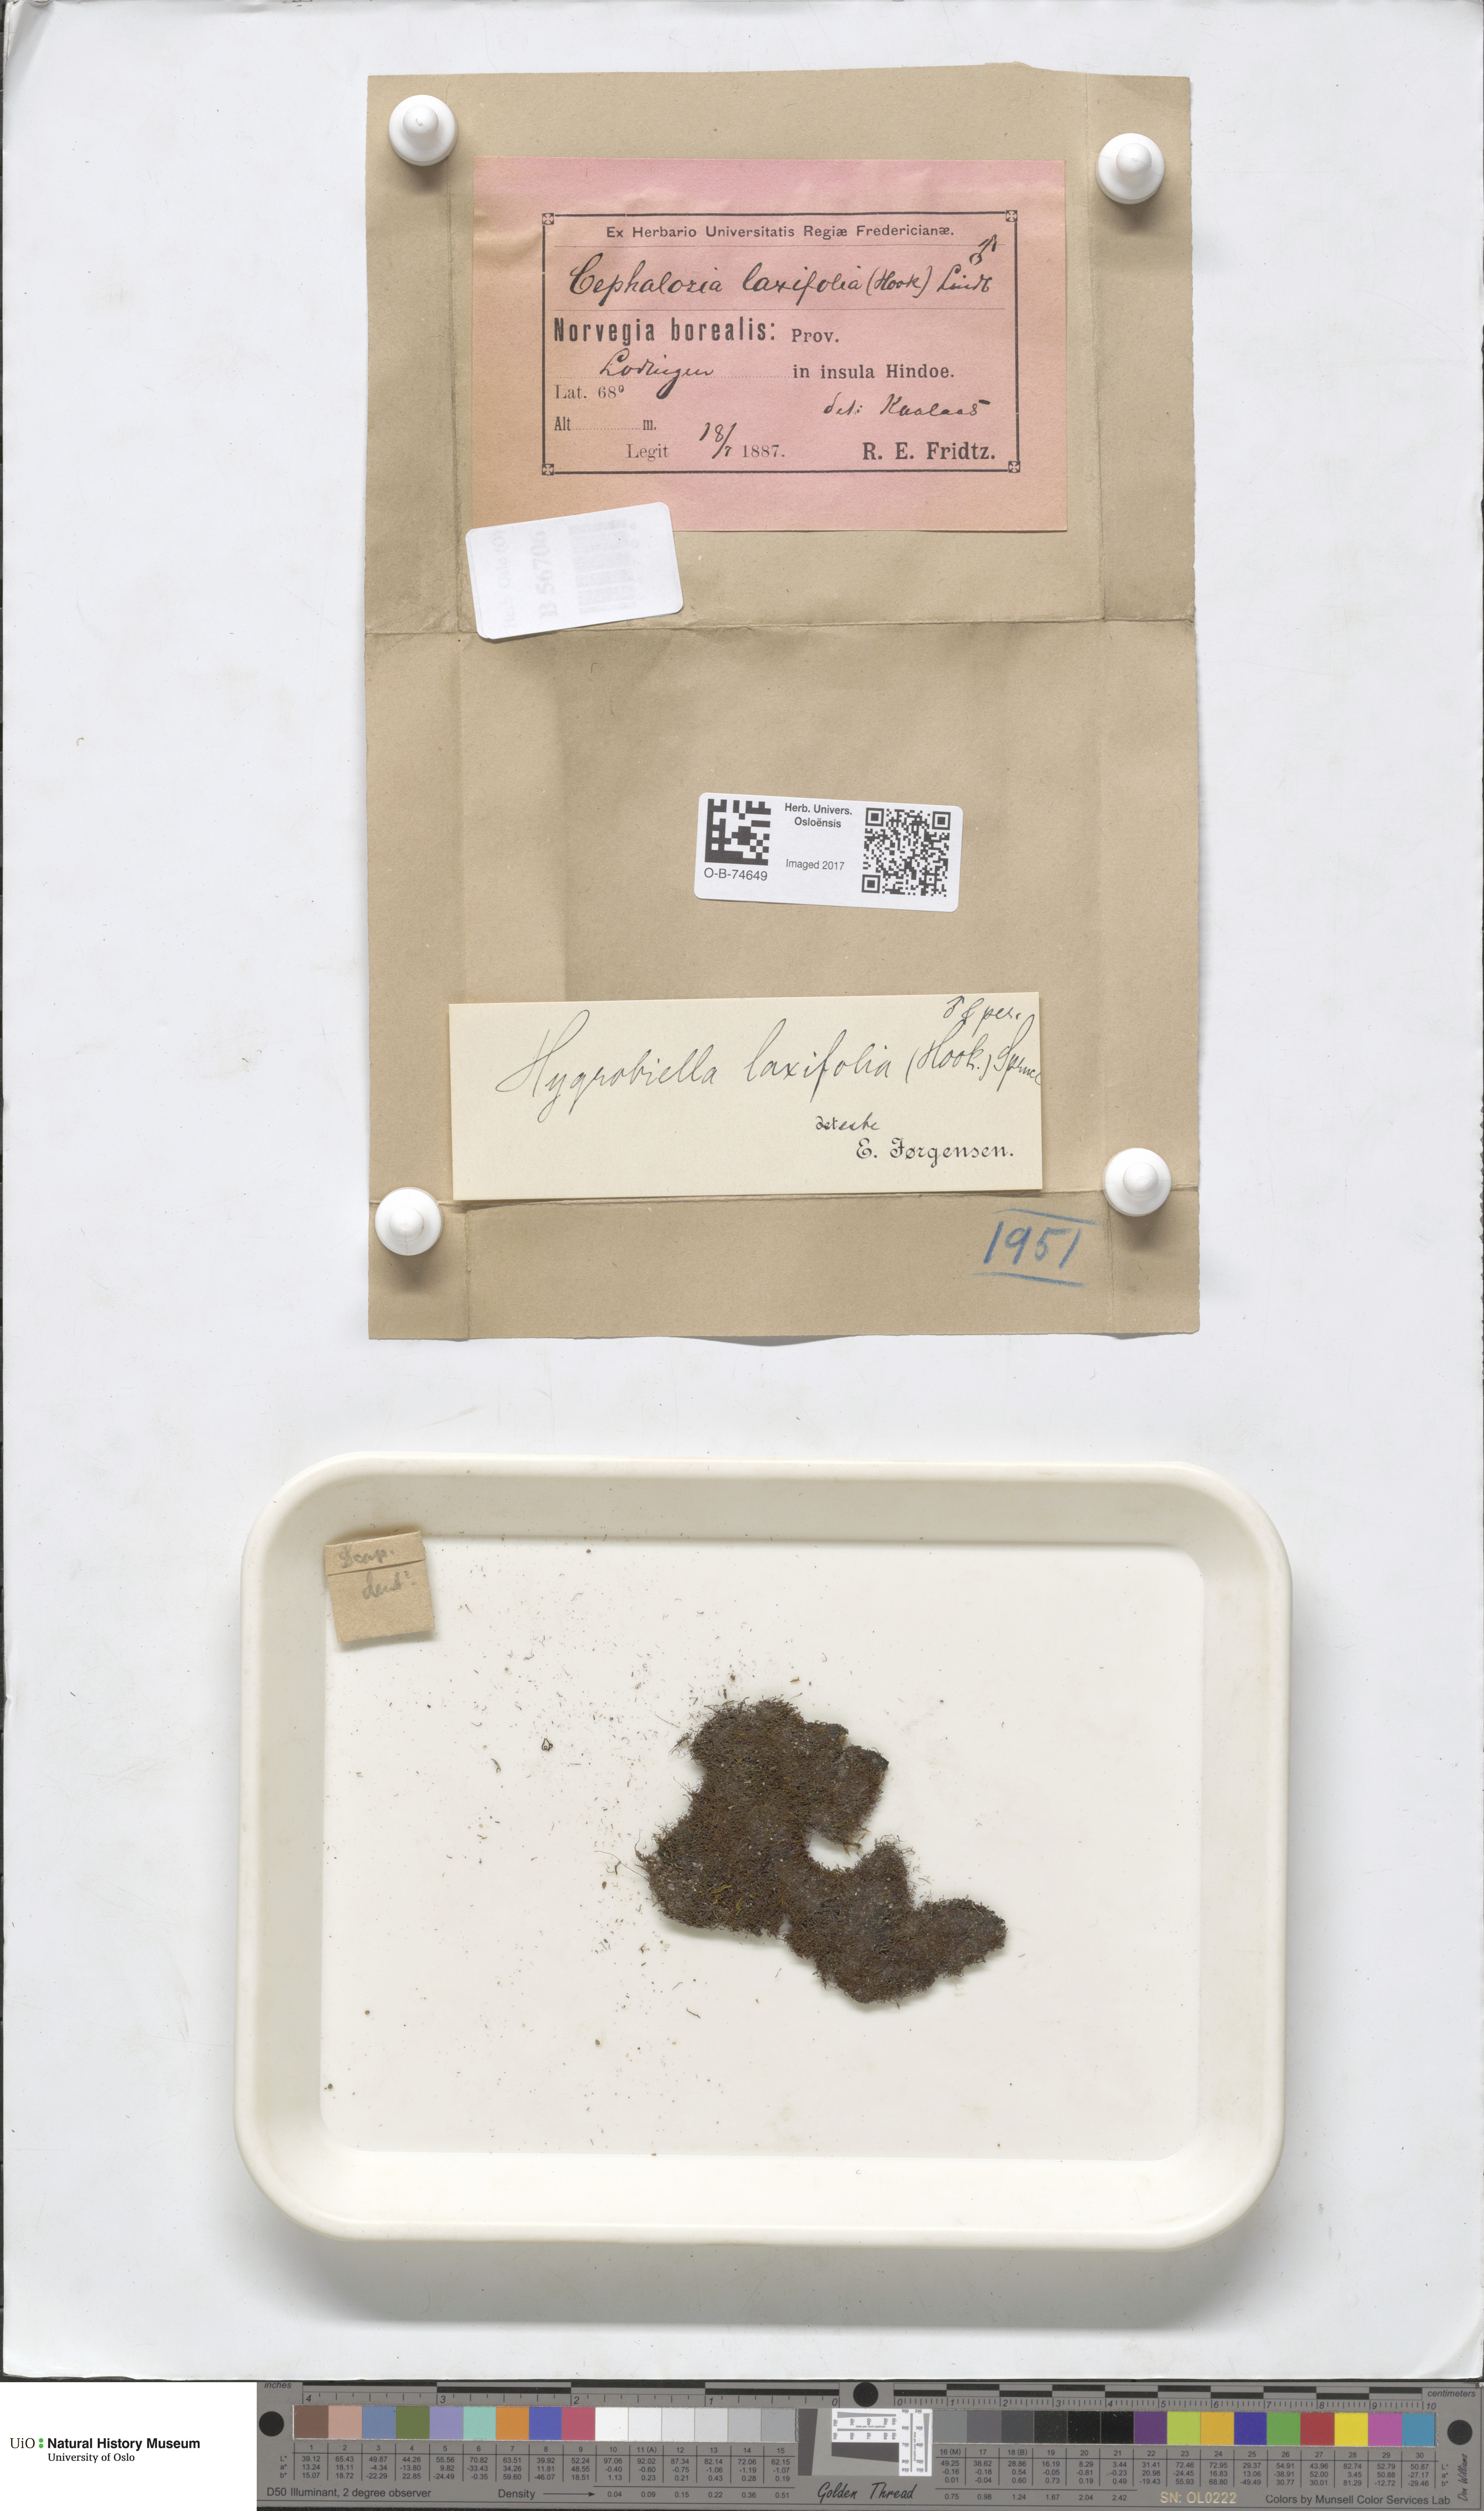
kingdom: Plantae
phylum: Marchantiophyta
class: Jungermanniopsida
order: Jungermanniales
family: Herbertaceae
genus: Herbertus
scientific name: Herbertus stramineus
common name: Straw prongwort
